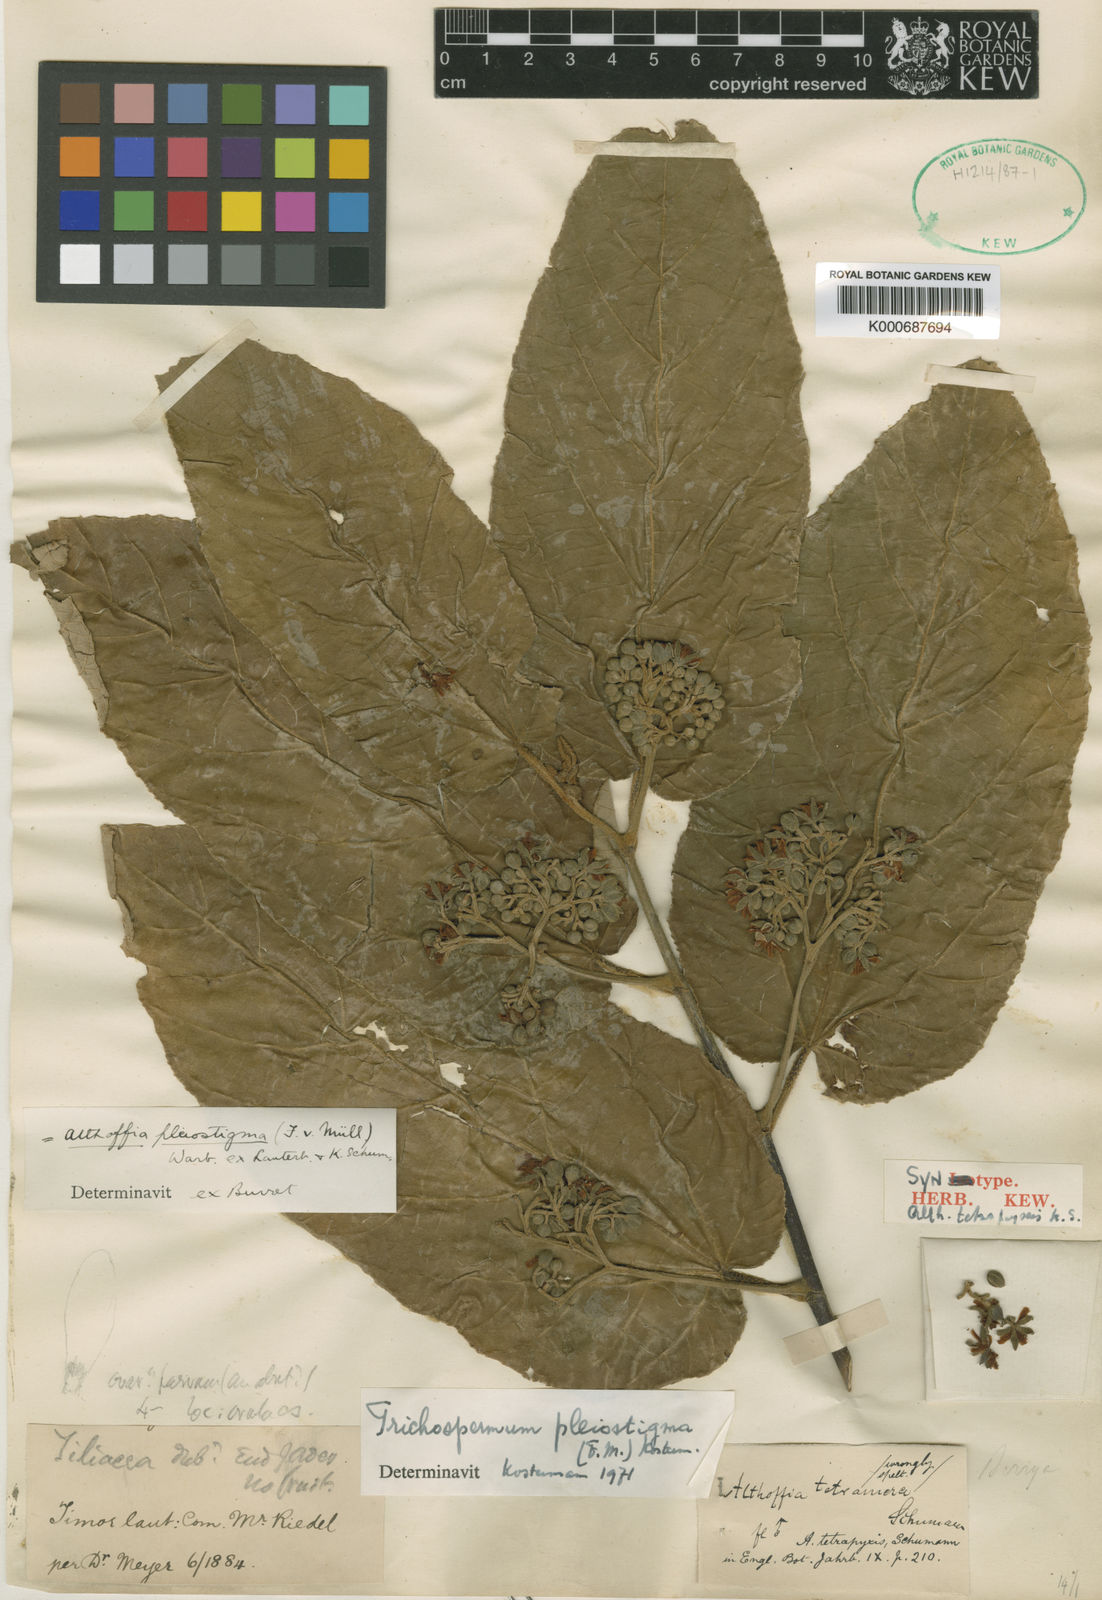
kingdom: Plantae
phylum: Tracheophyta
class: Magnoliopsida
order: Malvales
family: Malvaceae
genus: Trichospermum
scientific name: Trichospermum pleiostigma
